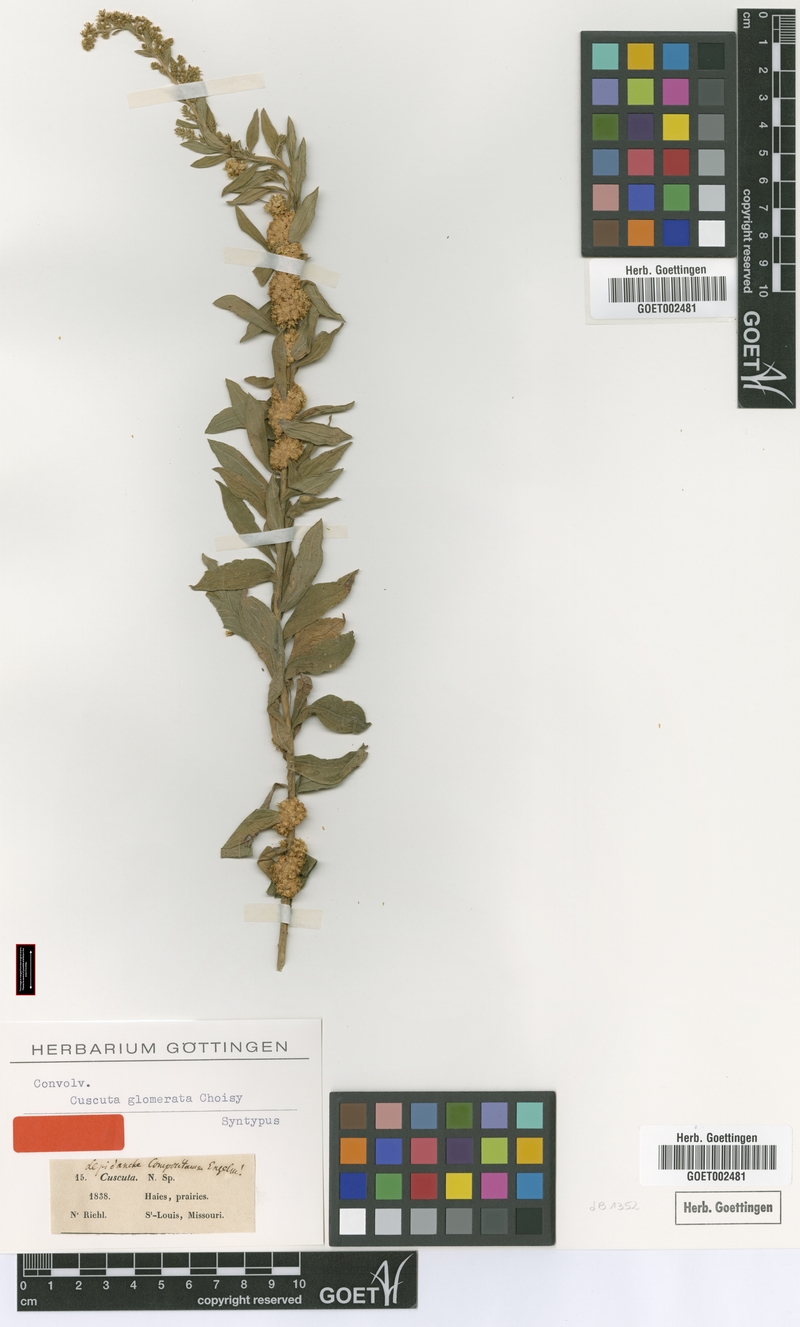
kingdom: Plantae
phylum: Tracheophyta
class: Magnoliopsida
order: Solanales
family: Convolvulaceae
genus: Cuscuta
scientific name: Cuscuta glomerata
